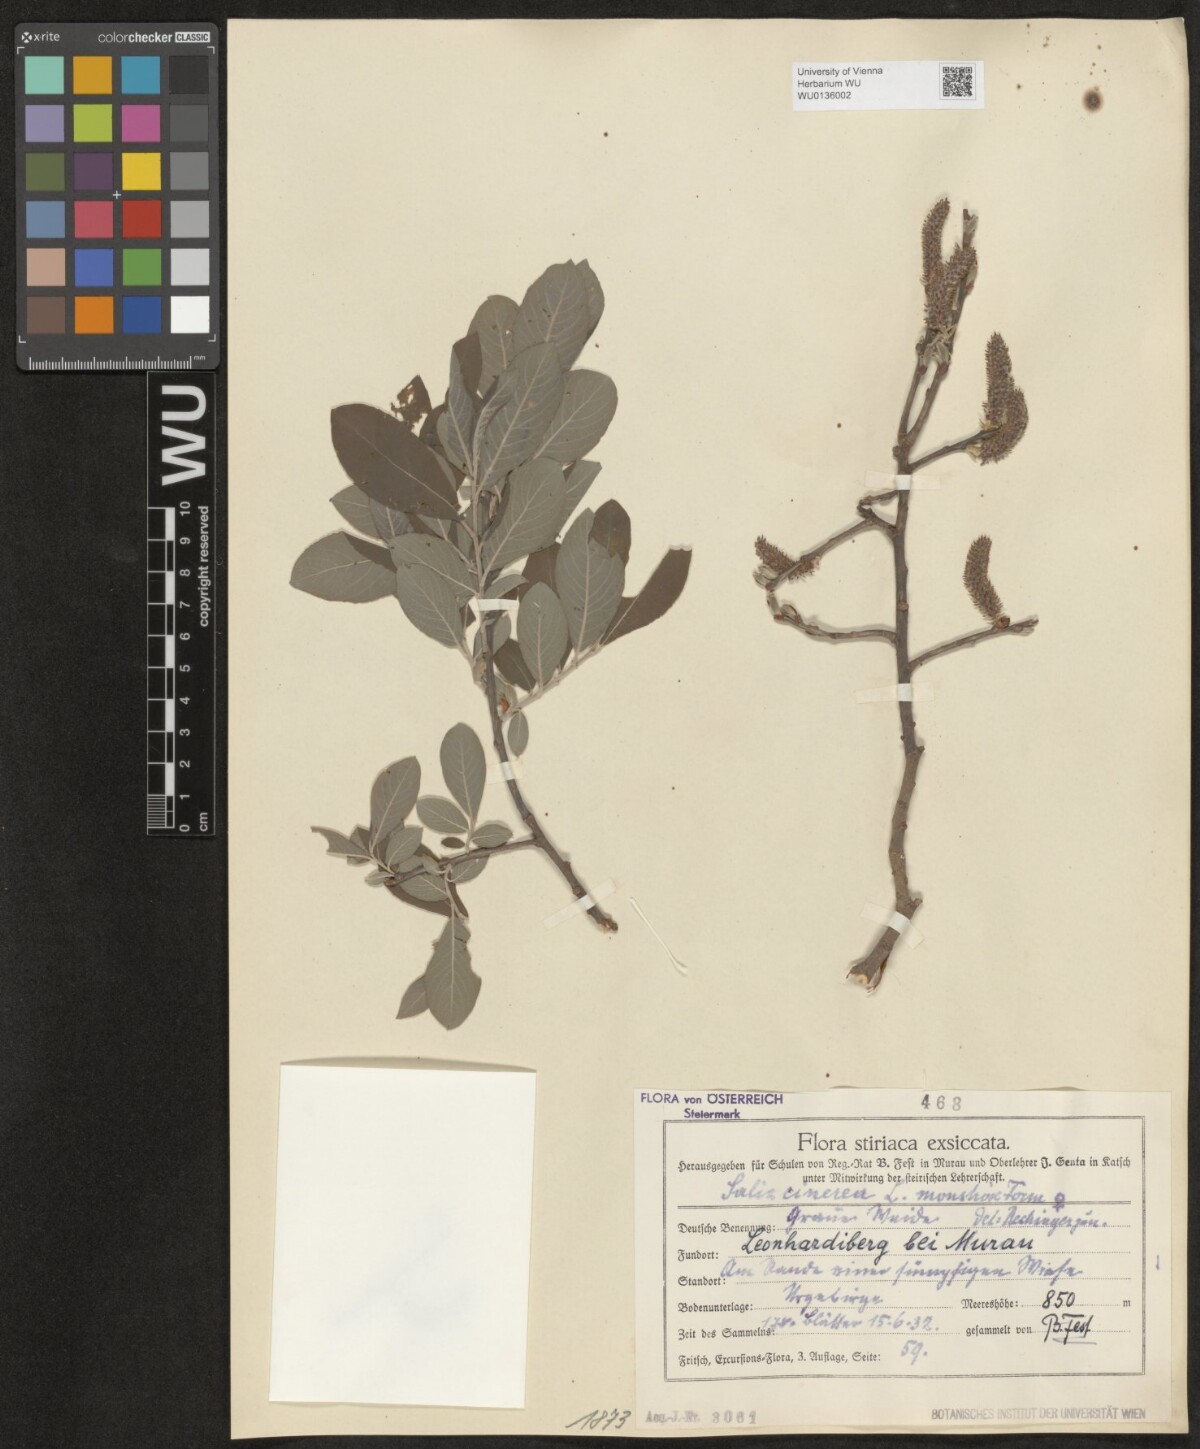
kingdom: Plantae
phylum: Tracheophyta
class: Magnoliopsida
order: Malpighiales
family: Salicaceae
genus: Salix
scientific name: Salix cinerea
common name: Common sallow
